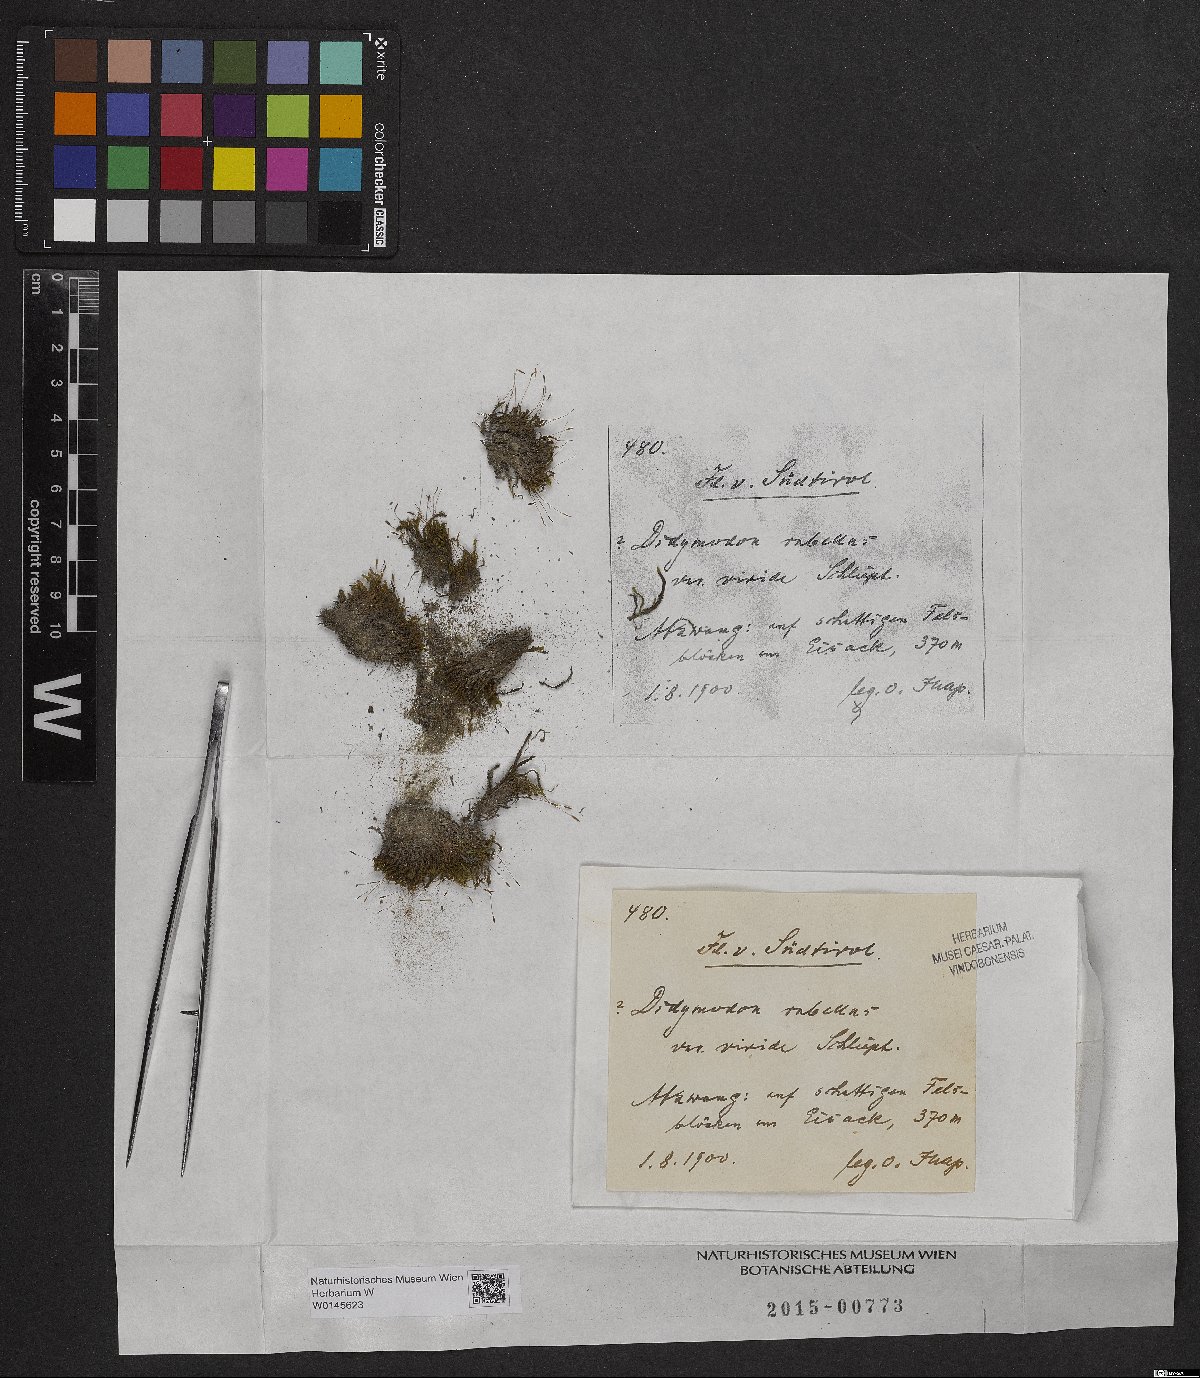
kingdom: Plantae
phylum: Bryophyta
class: Bryopsida
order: Pottiales
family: Pottiaceae
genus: Bryoerythrophyllum
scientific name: Bryoerythrophyllum recurvirostrum
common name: Red beard moss
